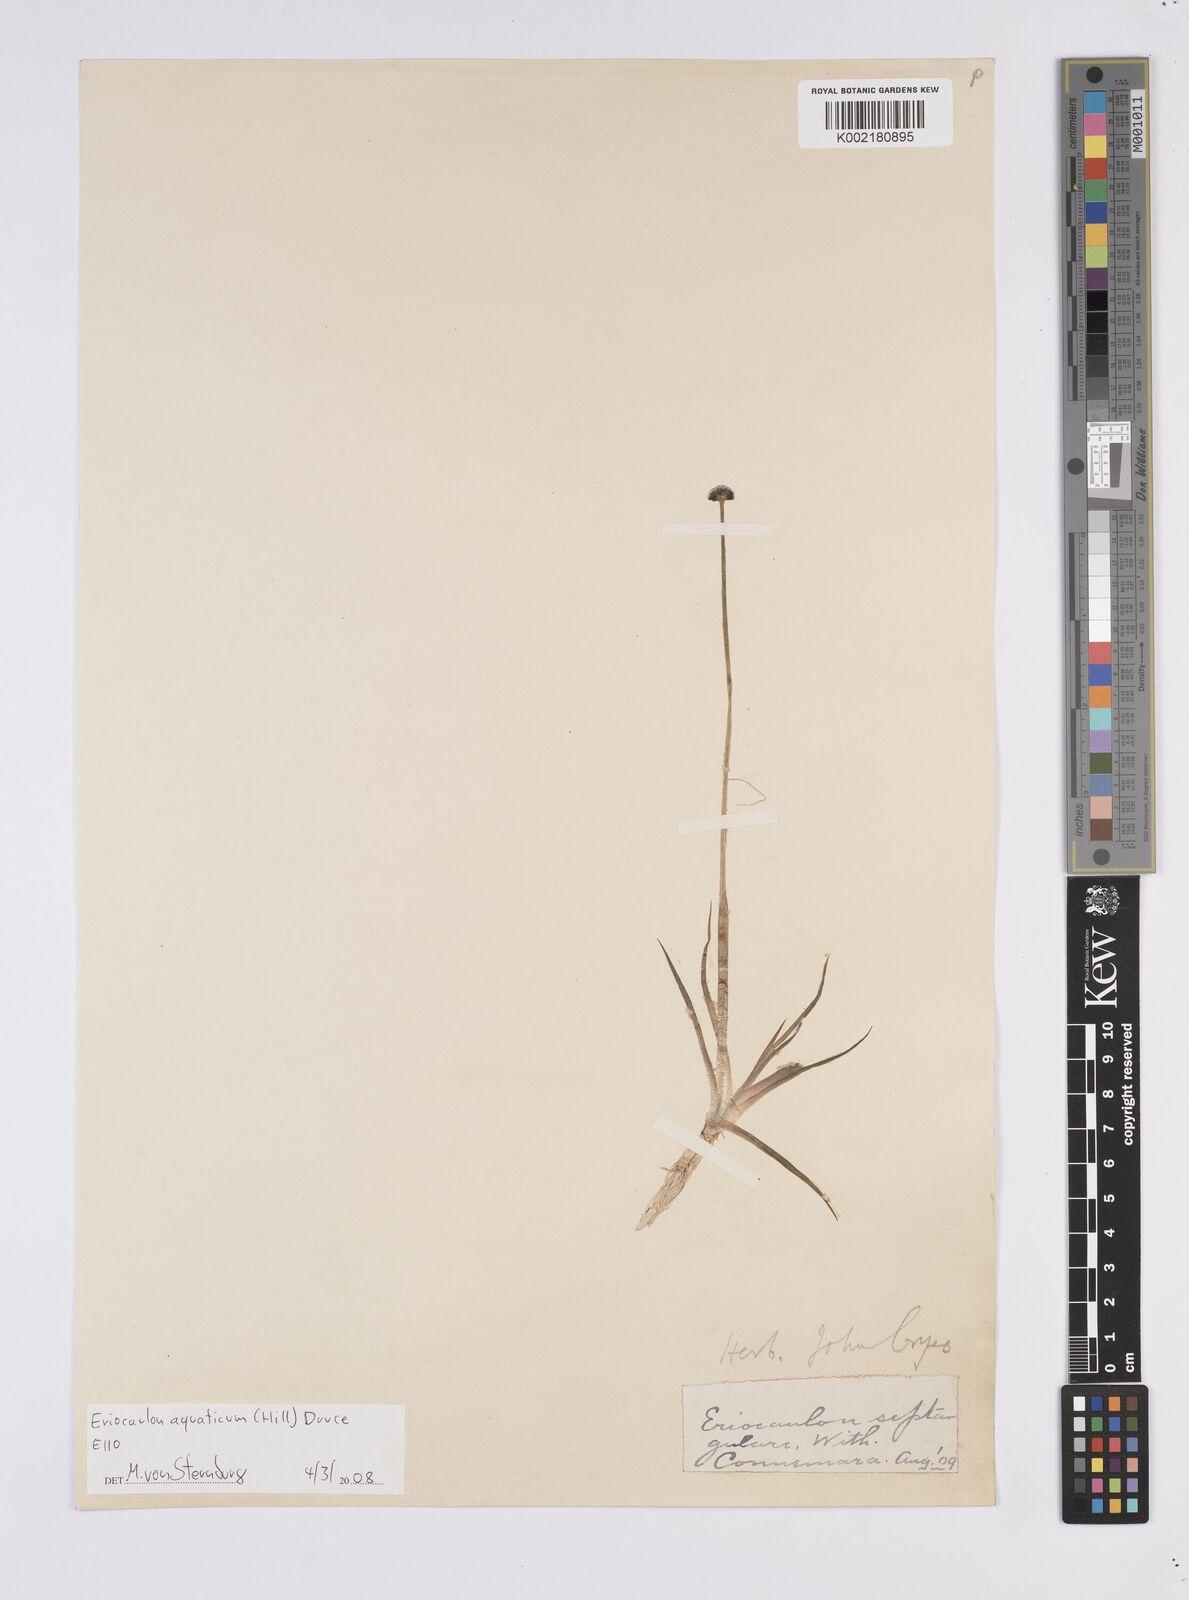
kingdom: Plantae
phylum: Tracheophyta
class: Liliopsida
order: Poales
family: Eriocaulaceae
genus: Eriocaulon
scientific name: Eriocaulon aquaticum
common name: Pipewort
